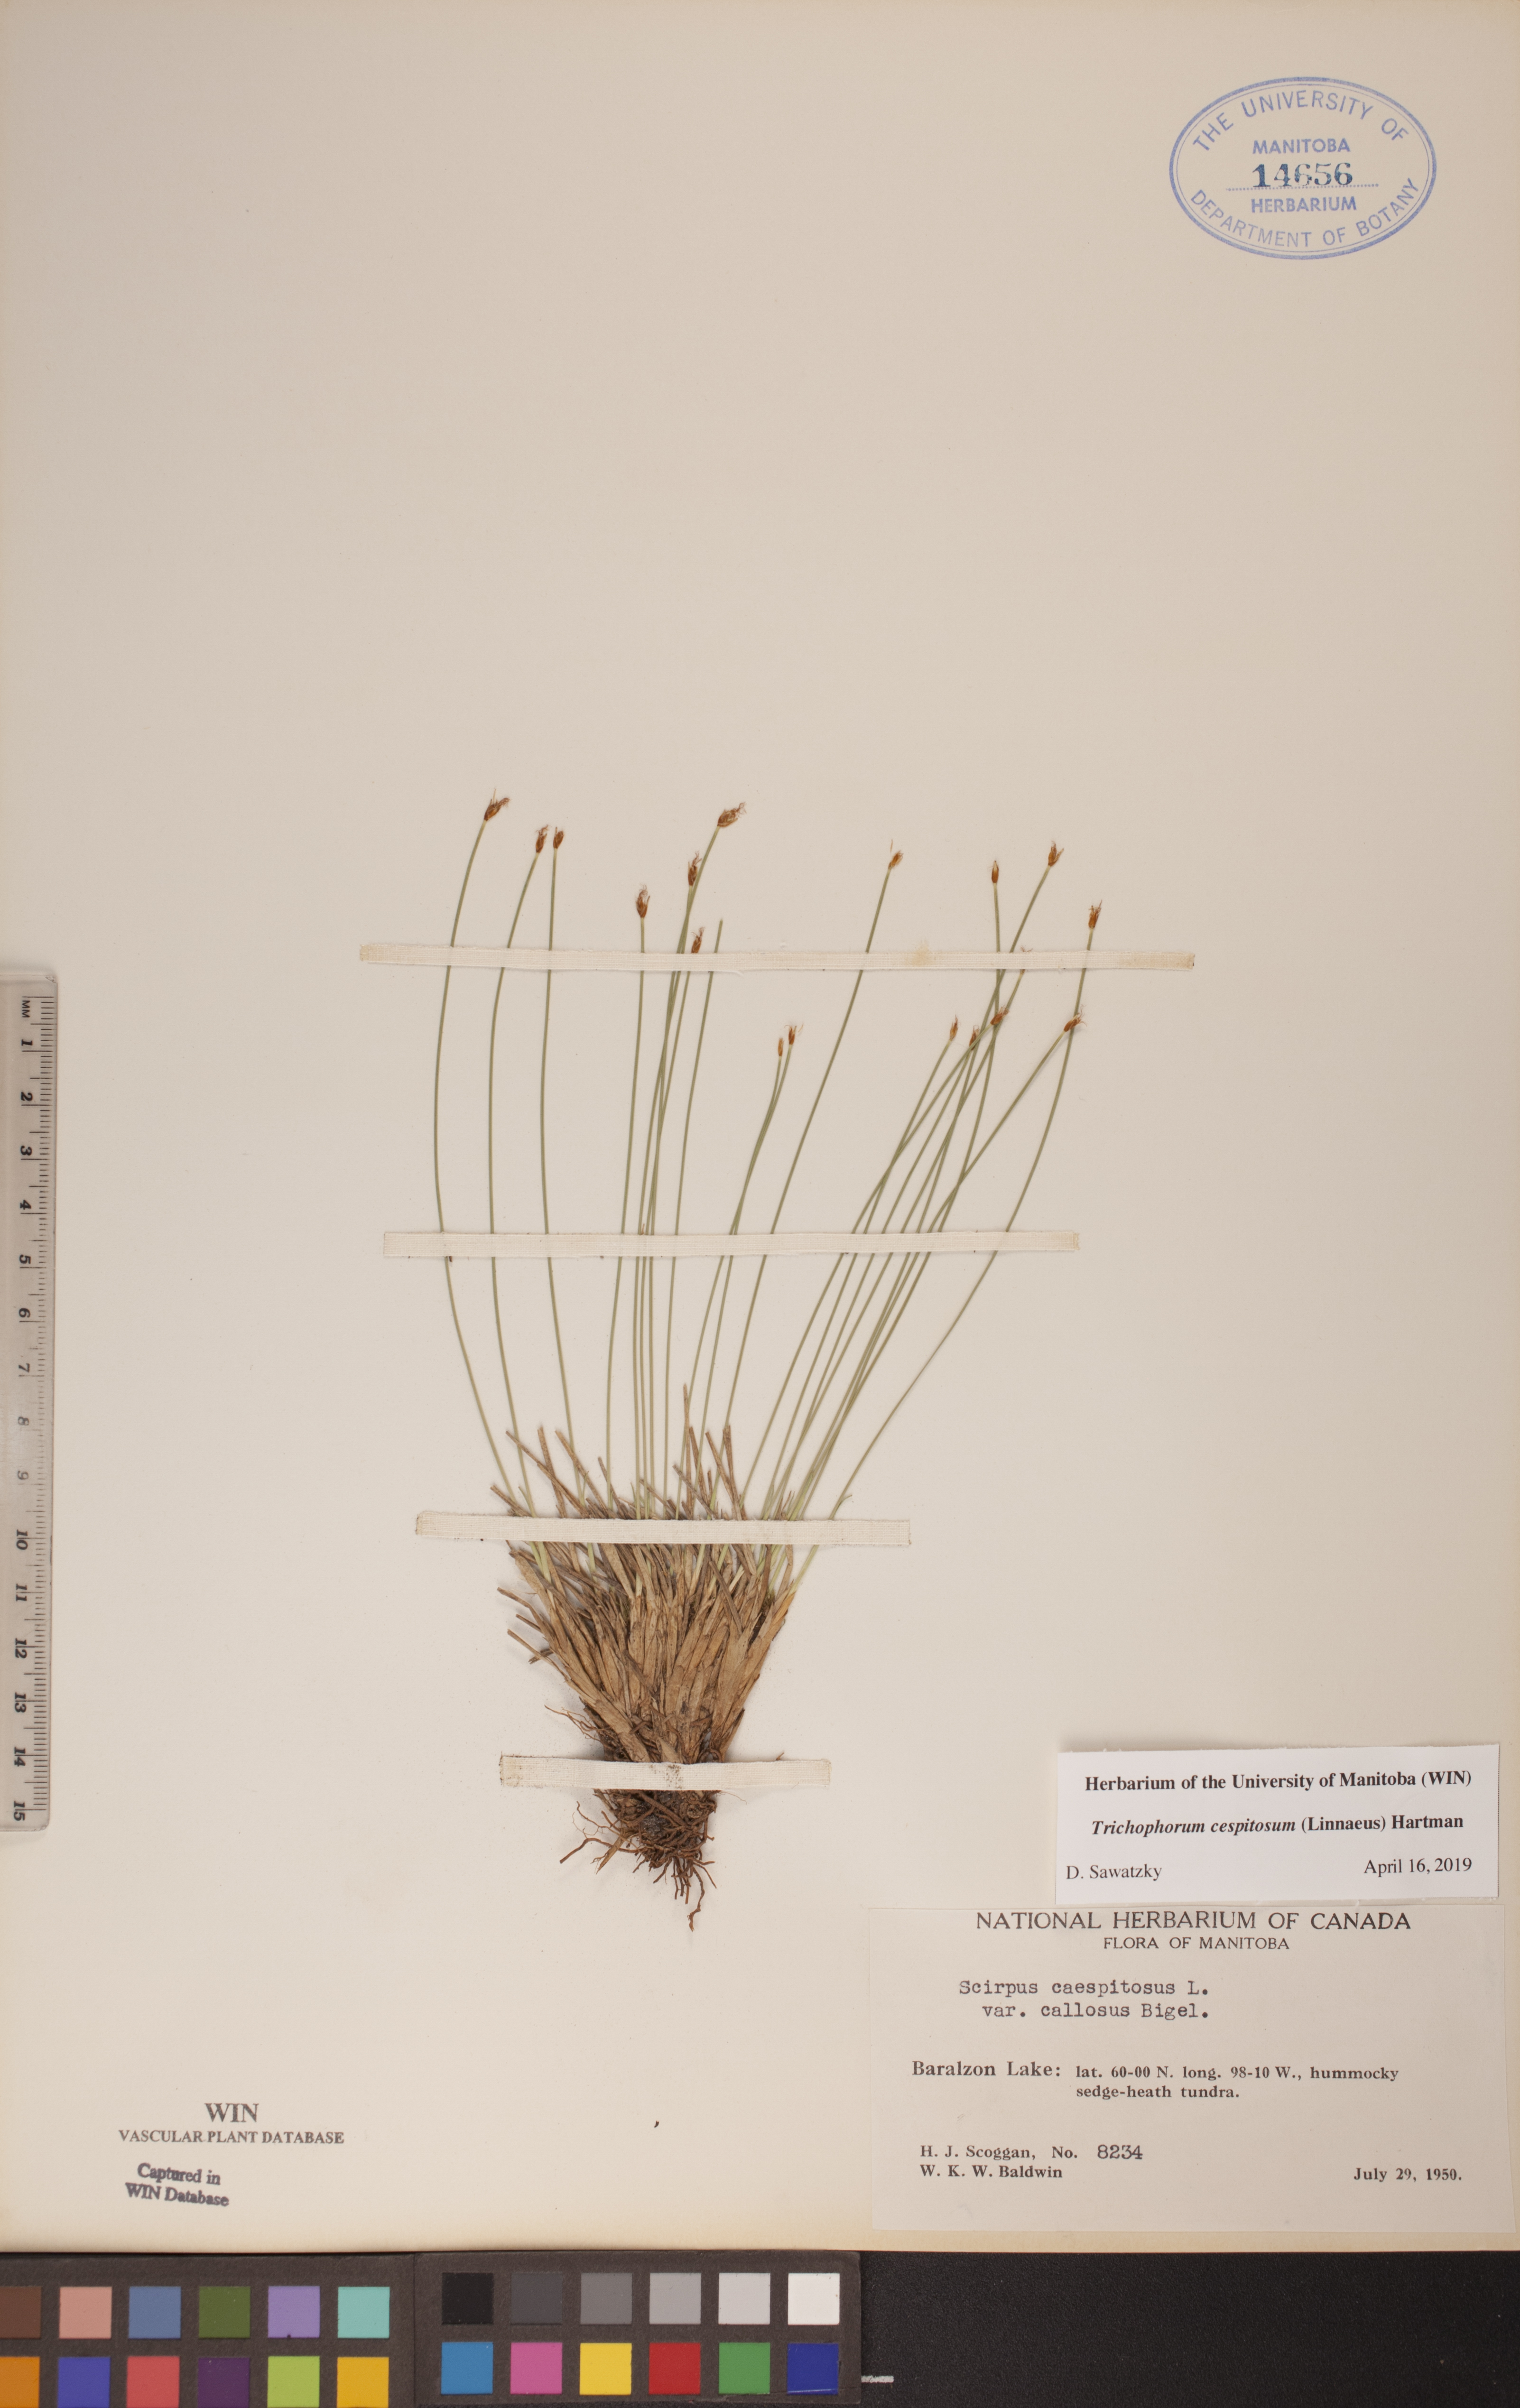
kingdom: Plantae
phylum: Tracheophyta
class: Liliopsida
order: Poales
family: Cyperaceae
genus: Trichophorum
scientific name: Trichophorum cespitosum
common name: Cespitose bulrush
